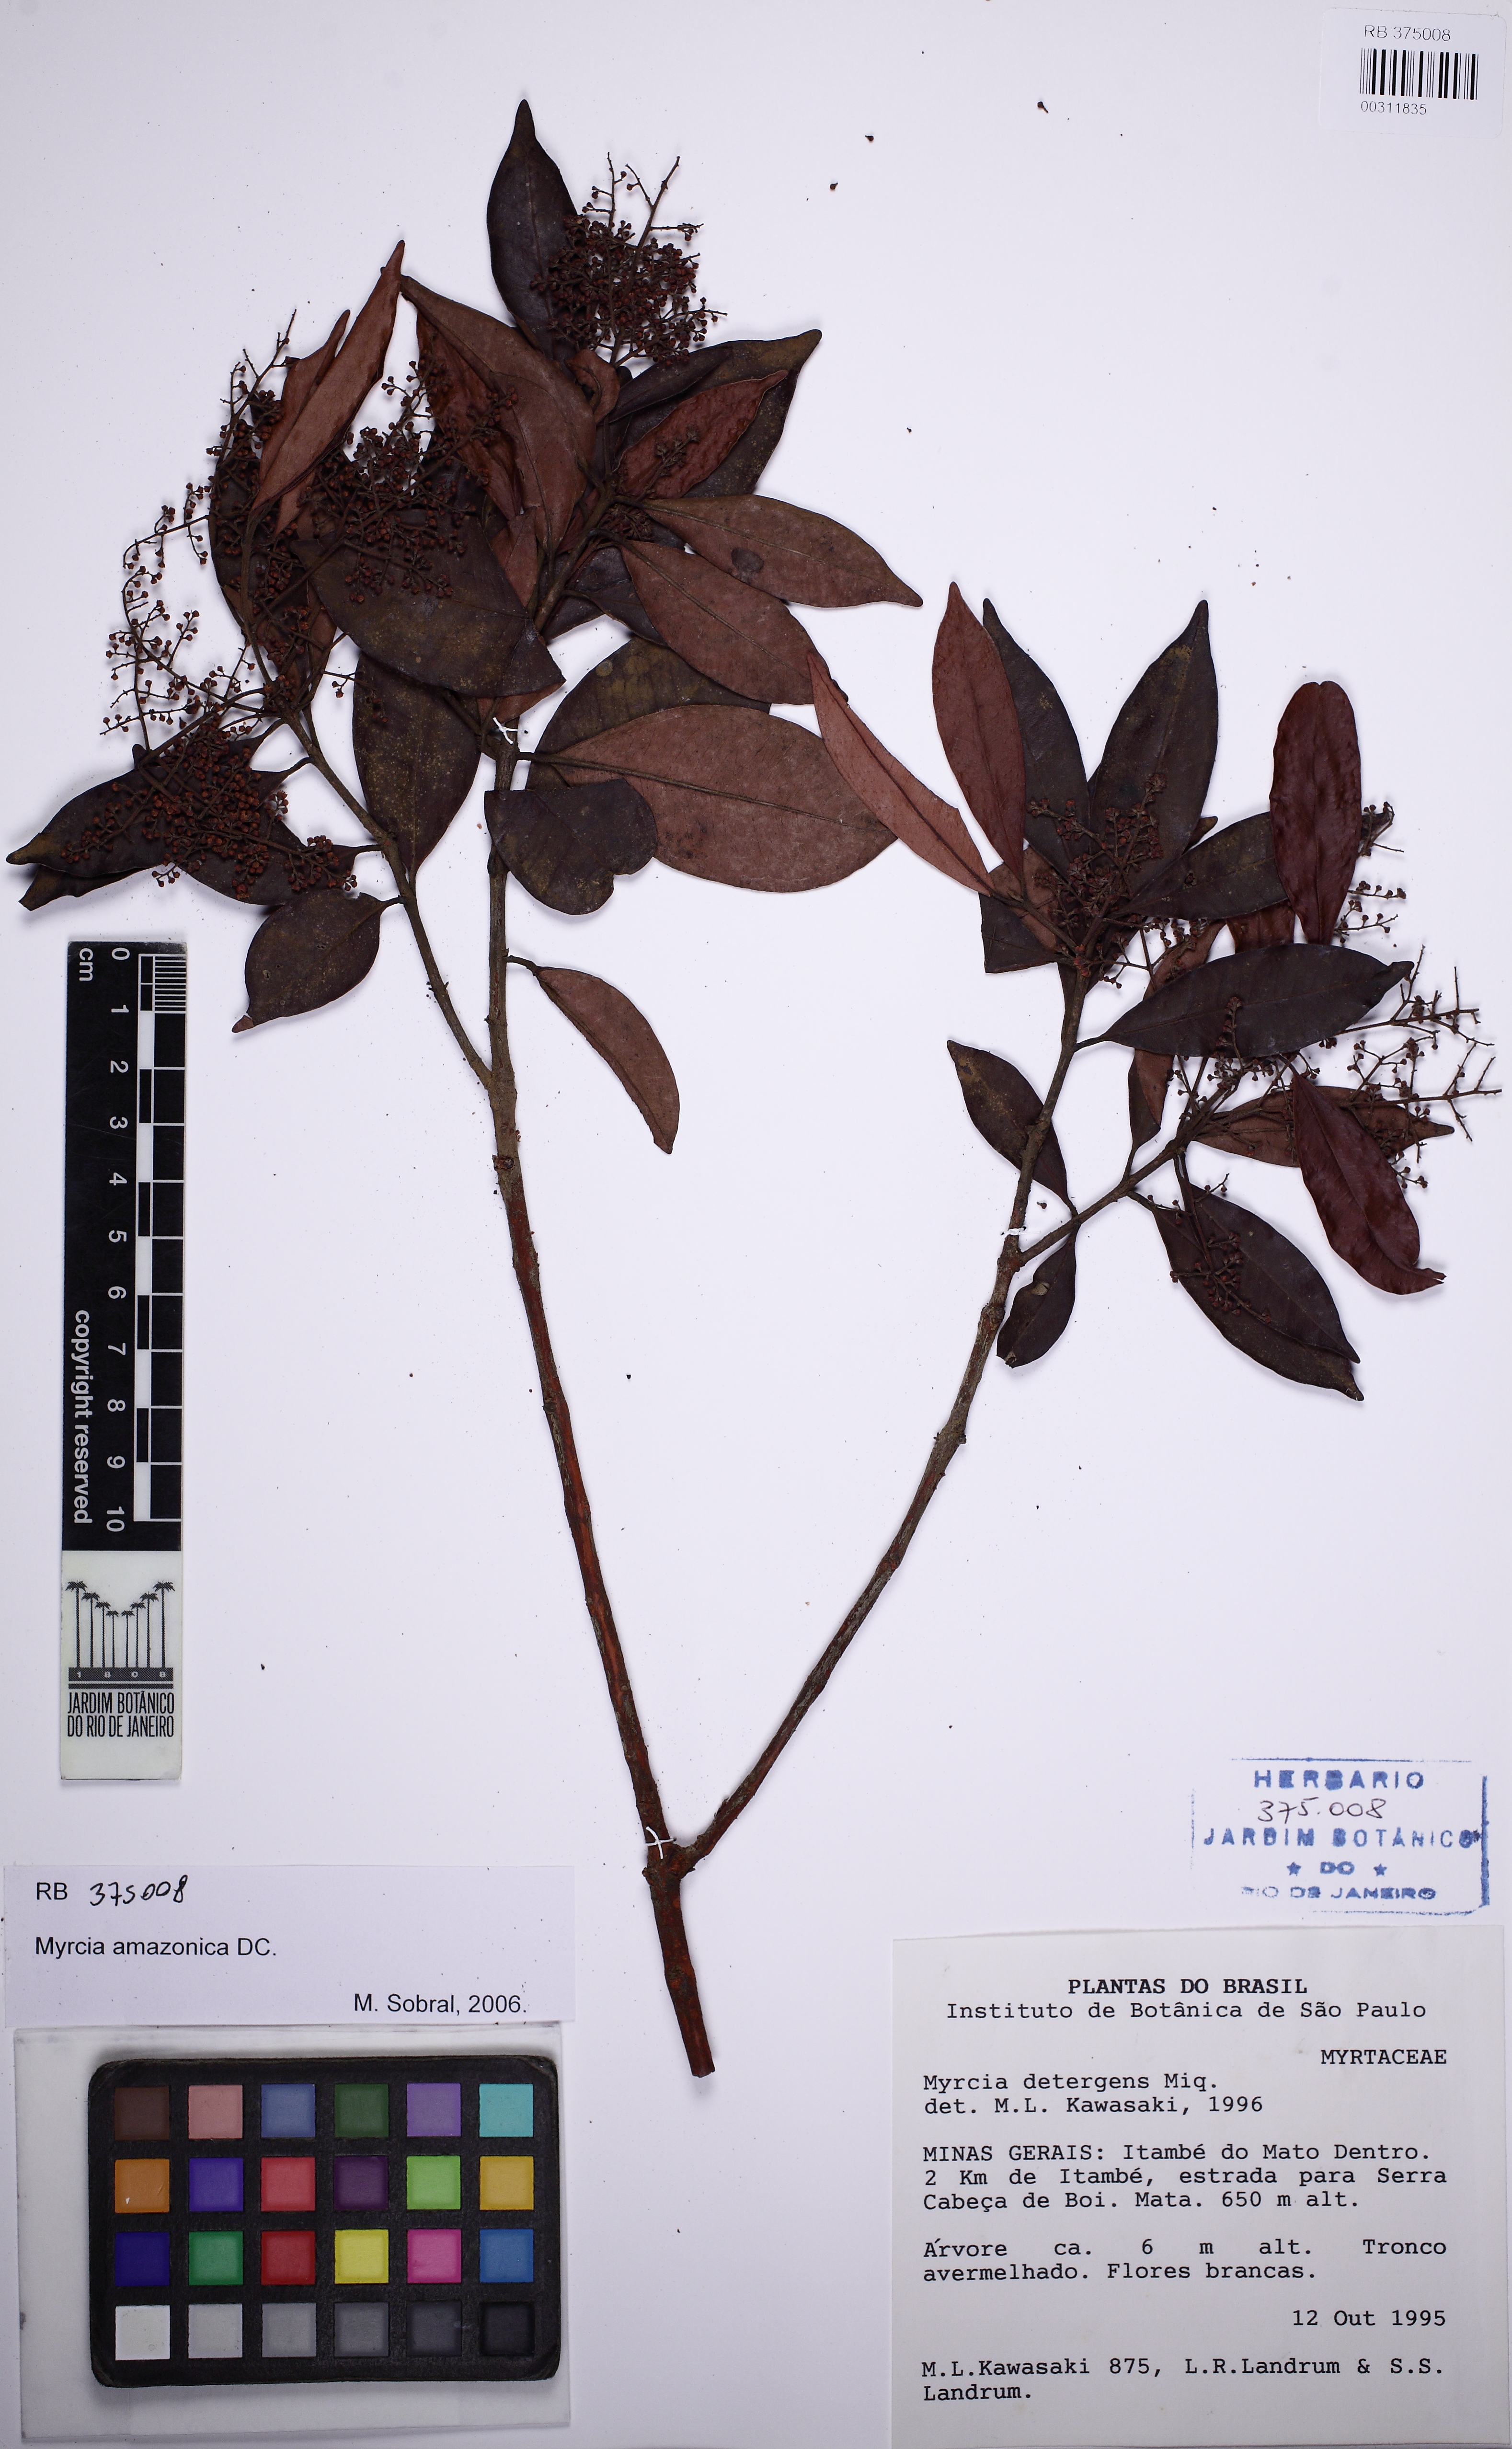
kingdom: Plantae
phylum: Tracheophyta
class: Magnoliopsida
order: Myrtales
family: Myrtaceae
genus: Myrcia
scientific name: Myrcia amazonica
